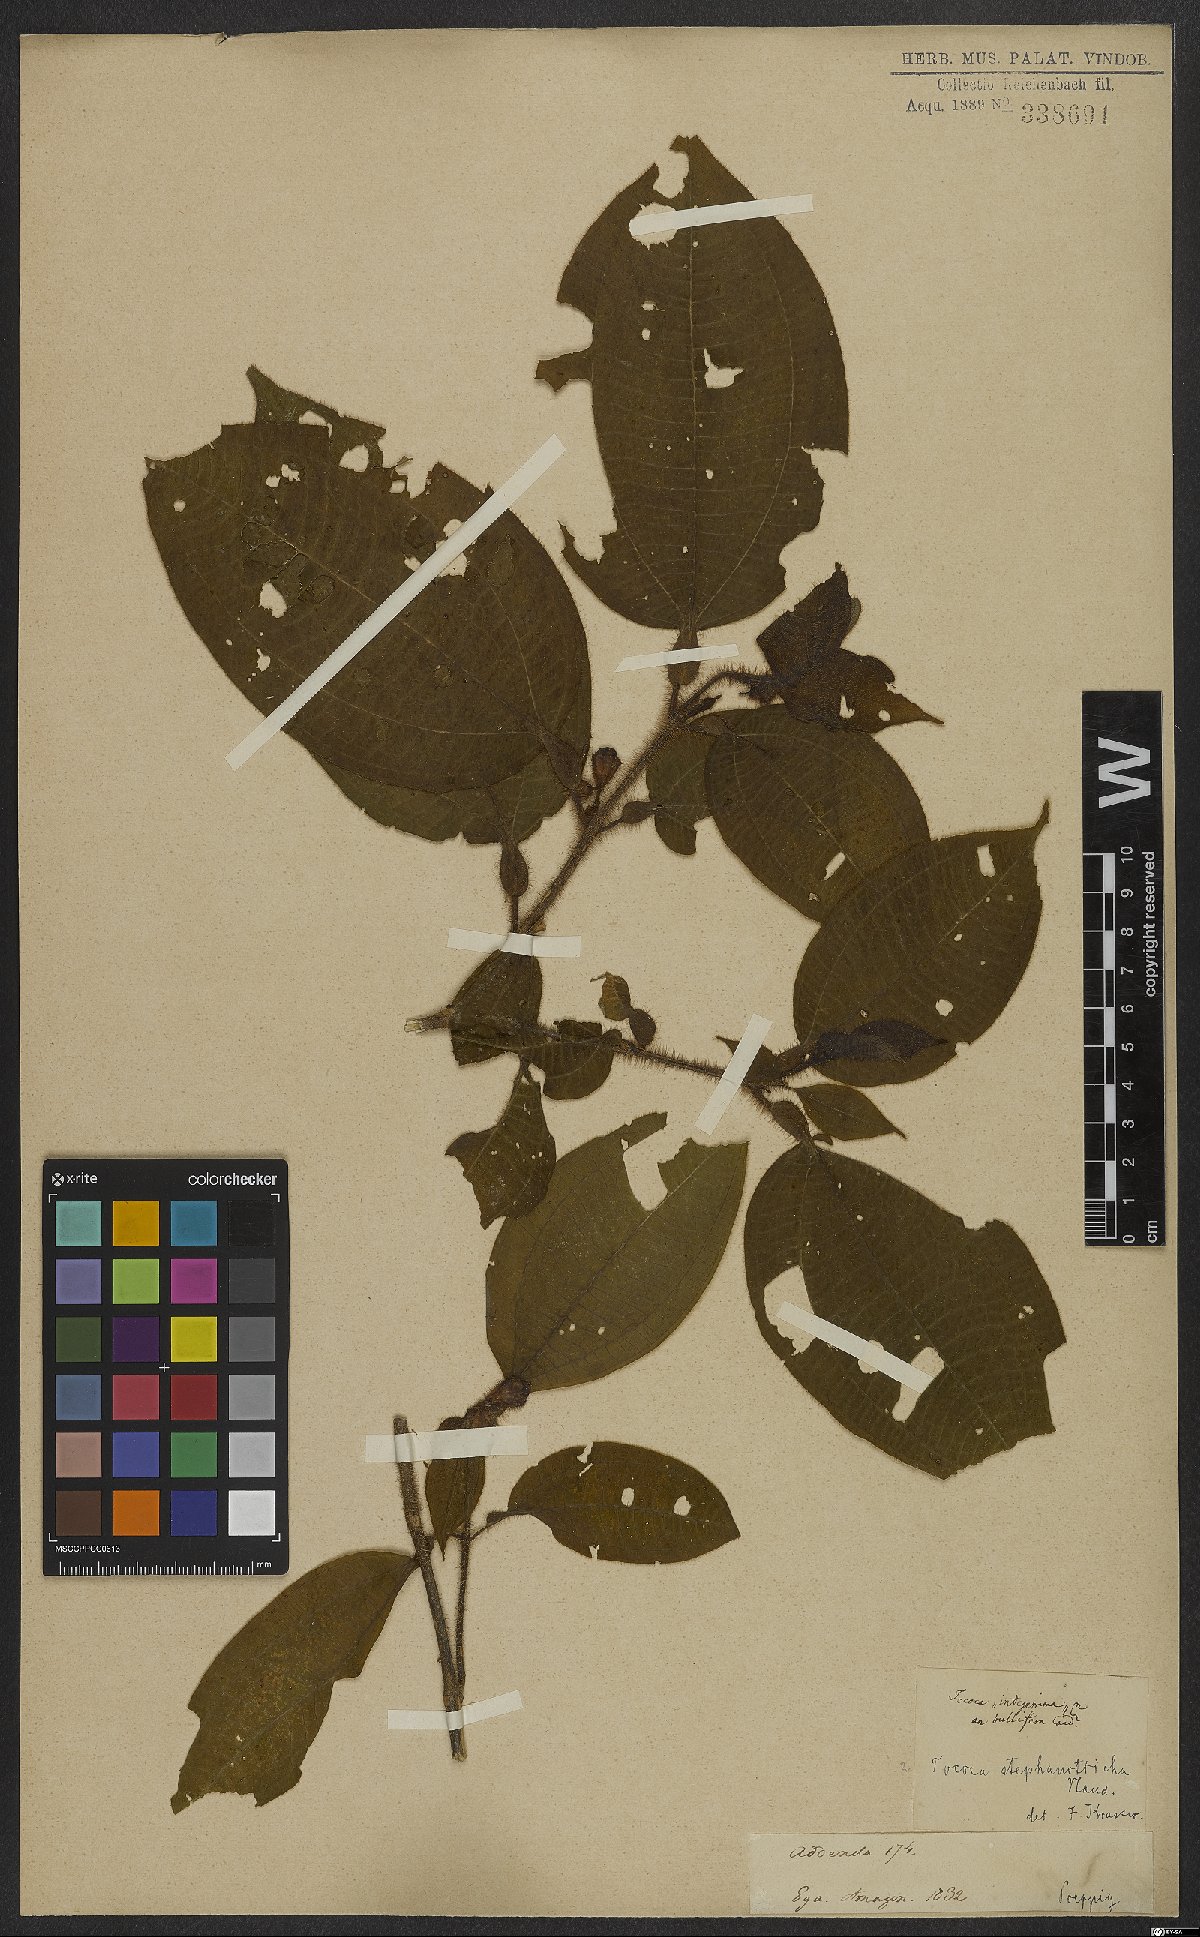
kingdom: Plantae
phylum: Tracheophyta
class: Magnoliopsida
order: Myrtales
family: Melastomataceae
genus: Miconia
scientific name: Miconia stephanotricha
